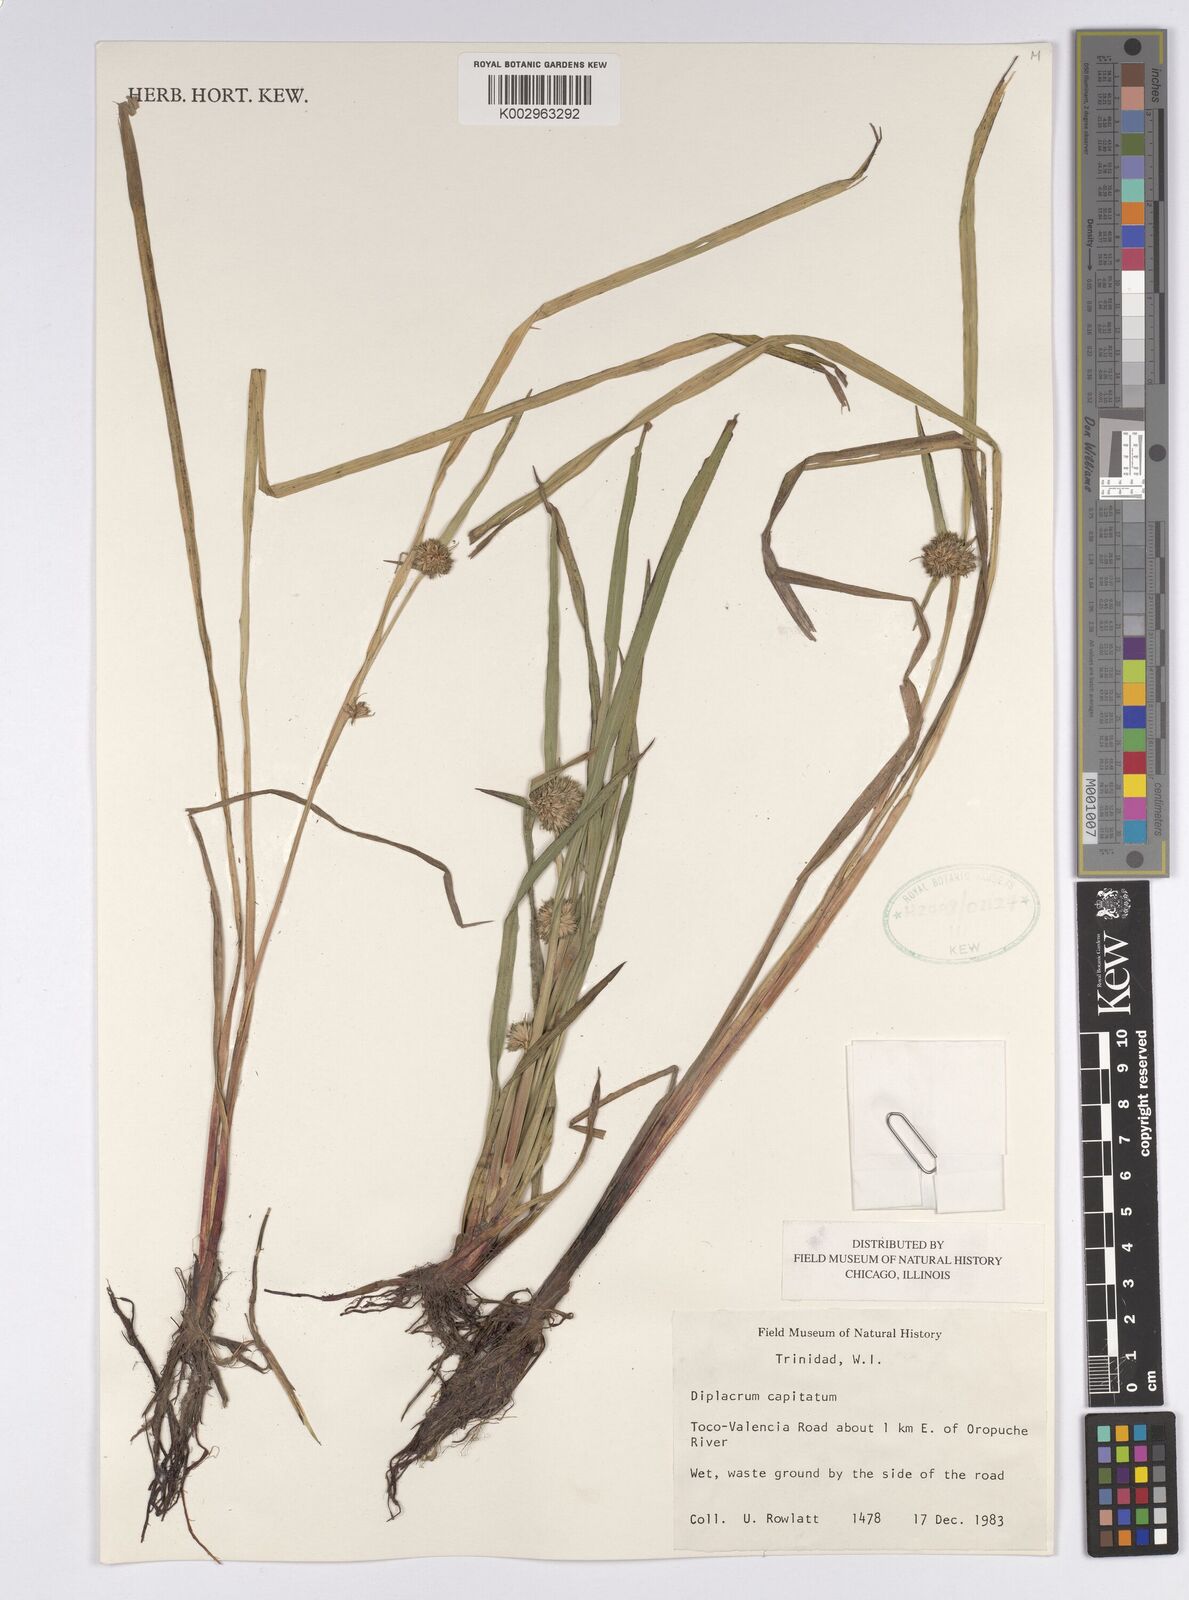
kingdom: Plantae
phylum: Tracheophyta
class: Liliopsida
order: Poales
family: Cyperaceae
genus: Diplacrum
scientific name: Diplacrum capitatum
